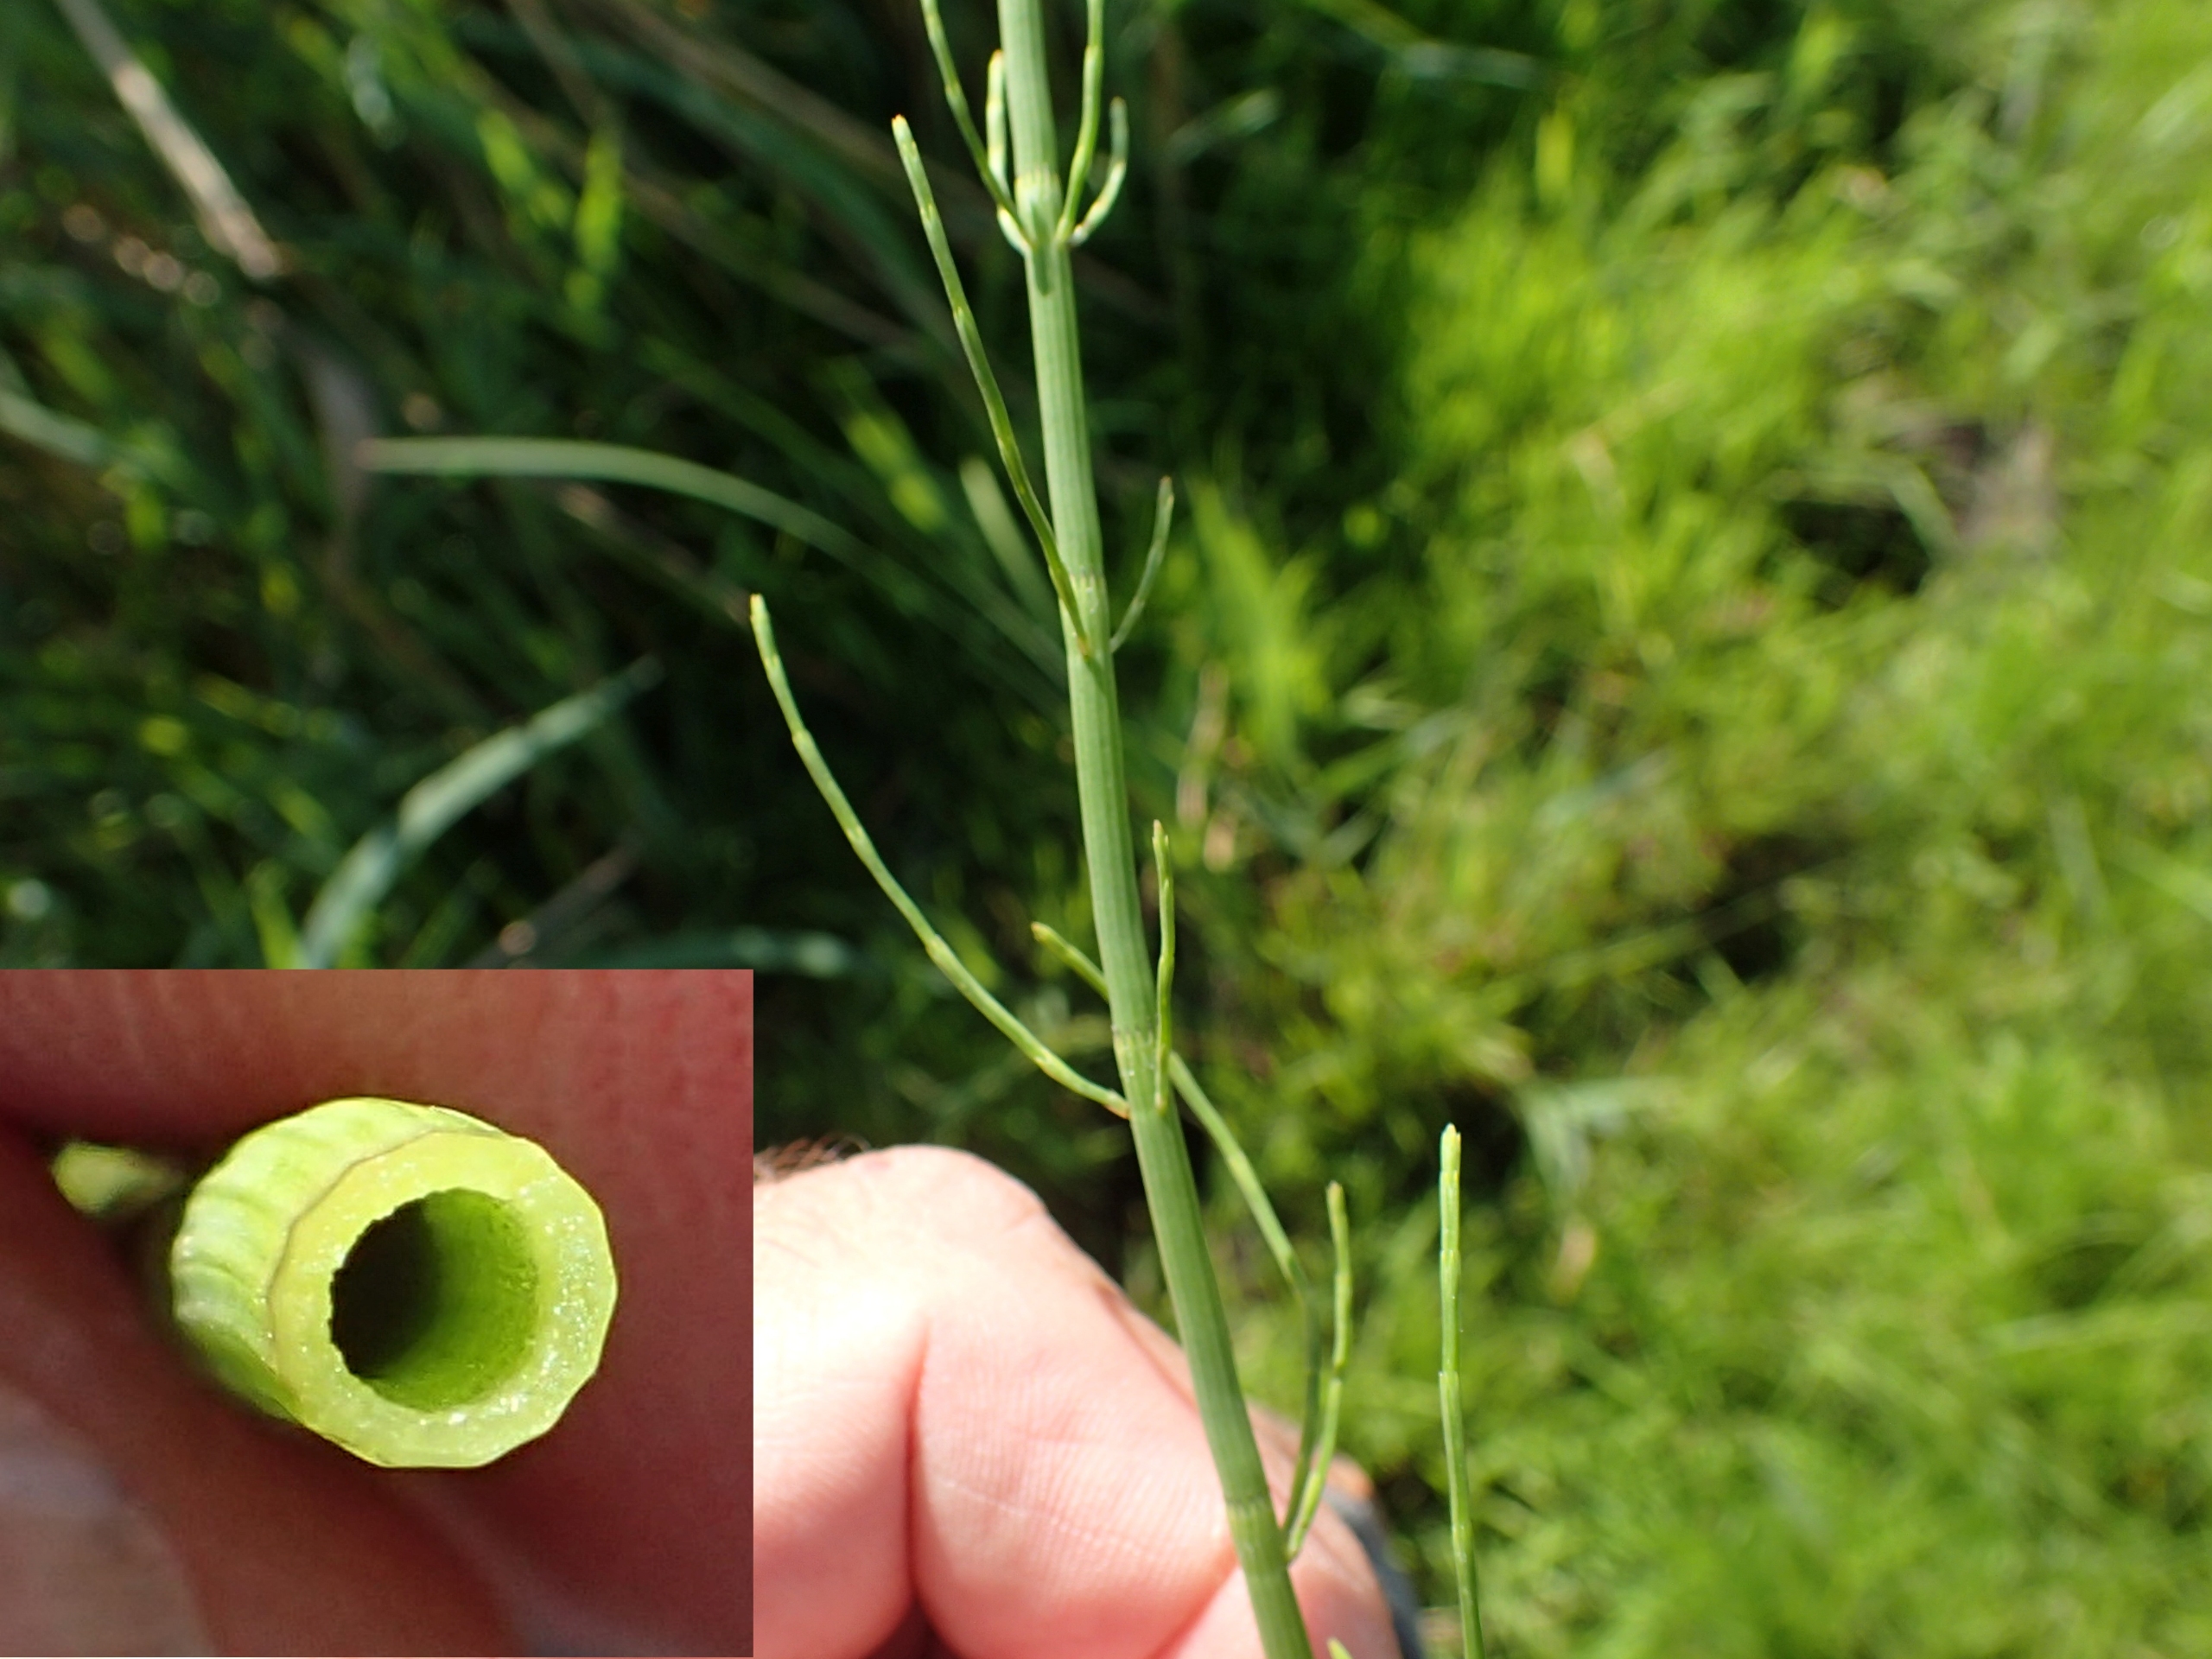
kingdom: Plantae
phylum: Tracheophyta
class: Polypodiopsida
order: Equisetales
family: Equisetaceae
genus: Equisetum
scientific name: Equisetum fluviatile
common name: Dynd-padderok
